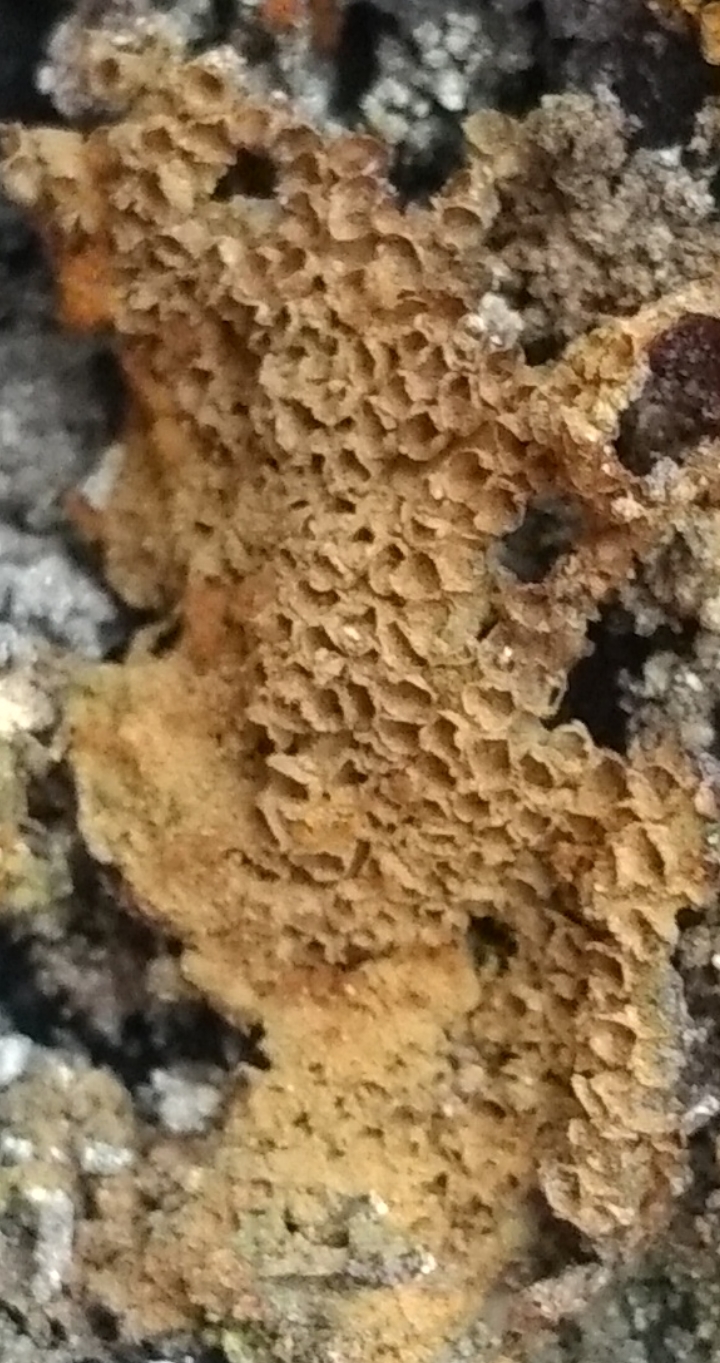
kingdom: Protozoa
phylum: Mycetozoa
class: Myxomycetes
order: Trichiales
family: Trichiaceae
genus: Trichia
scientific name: Trichia varia
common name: foranderlig hårbold
